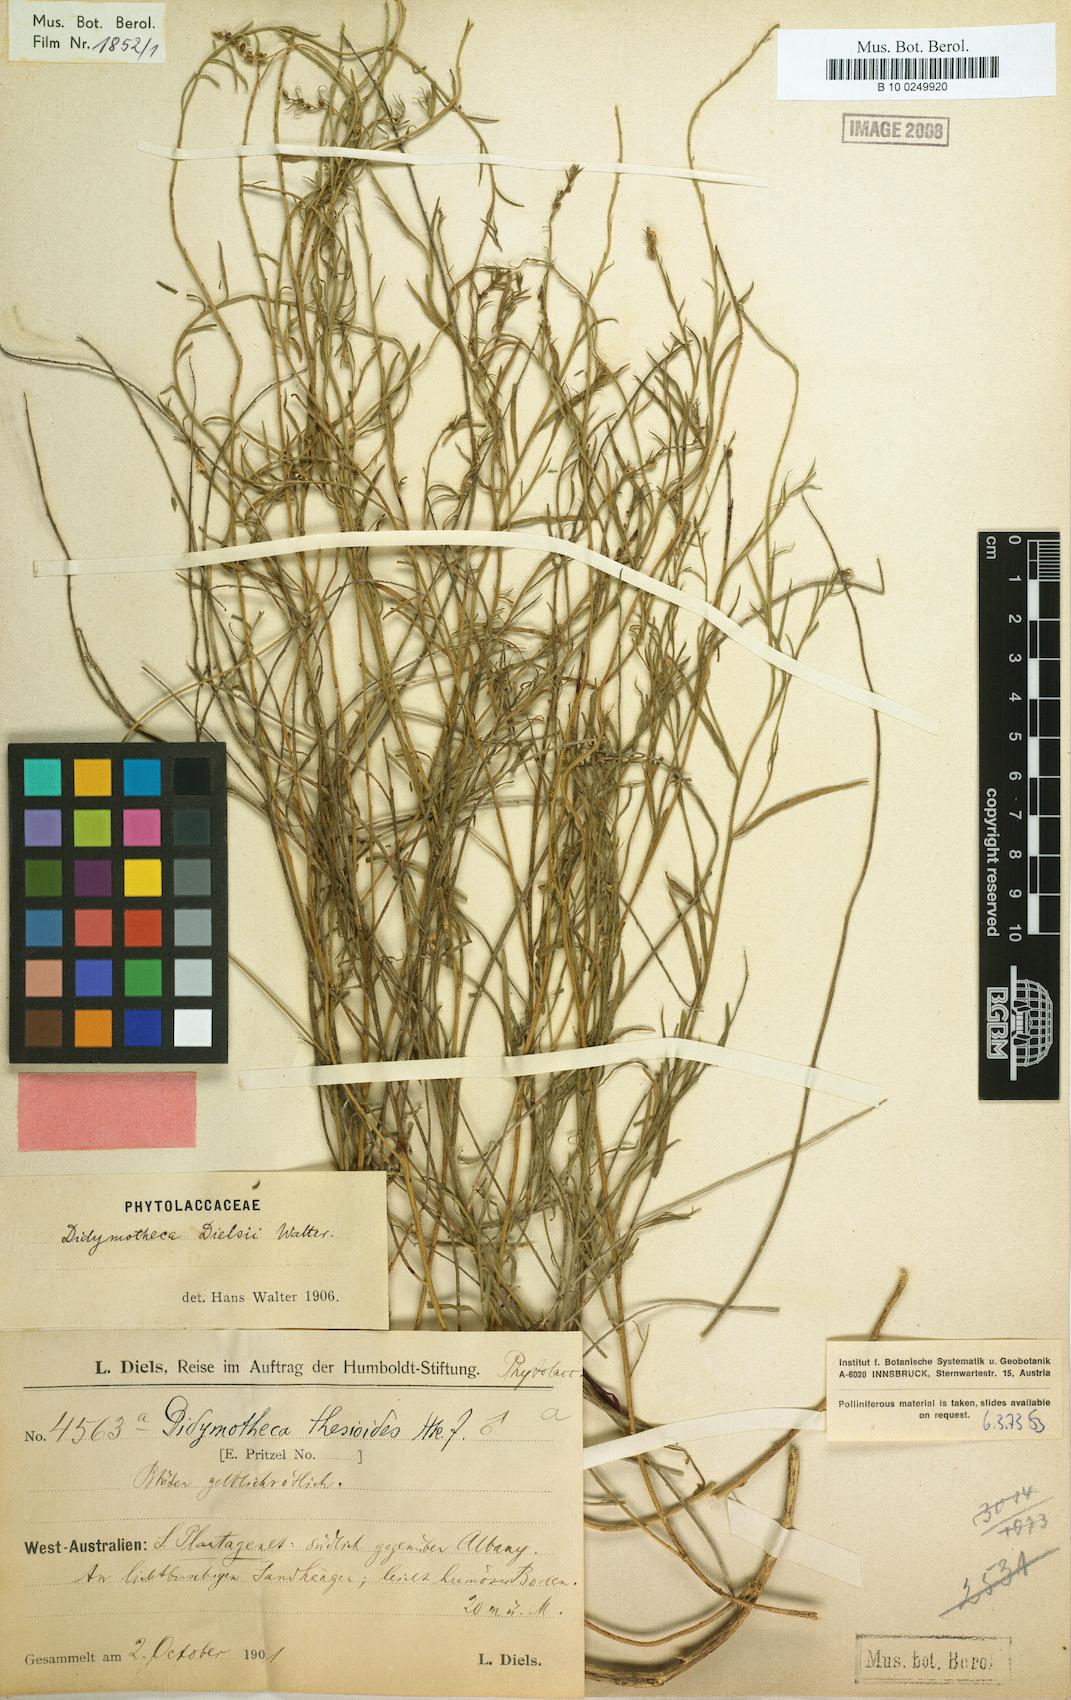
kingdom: Plantae
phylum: Tracheophyta
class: Magnoliopsida
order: Brassicales
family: Gyrostemonaceae
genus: Gyrostemon
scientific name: Gyrostemon thesioides
